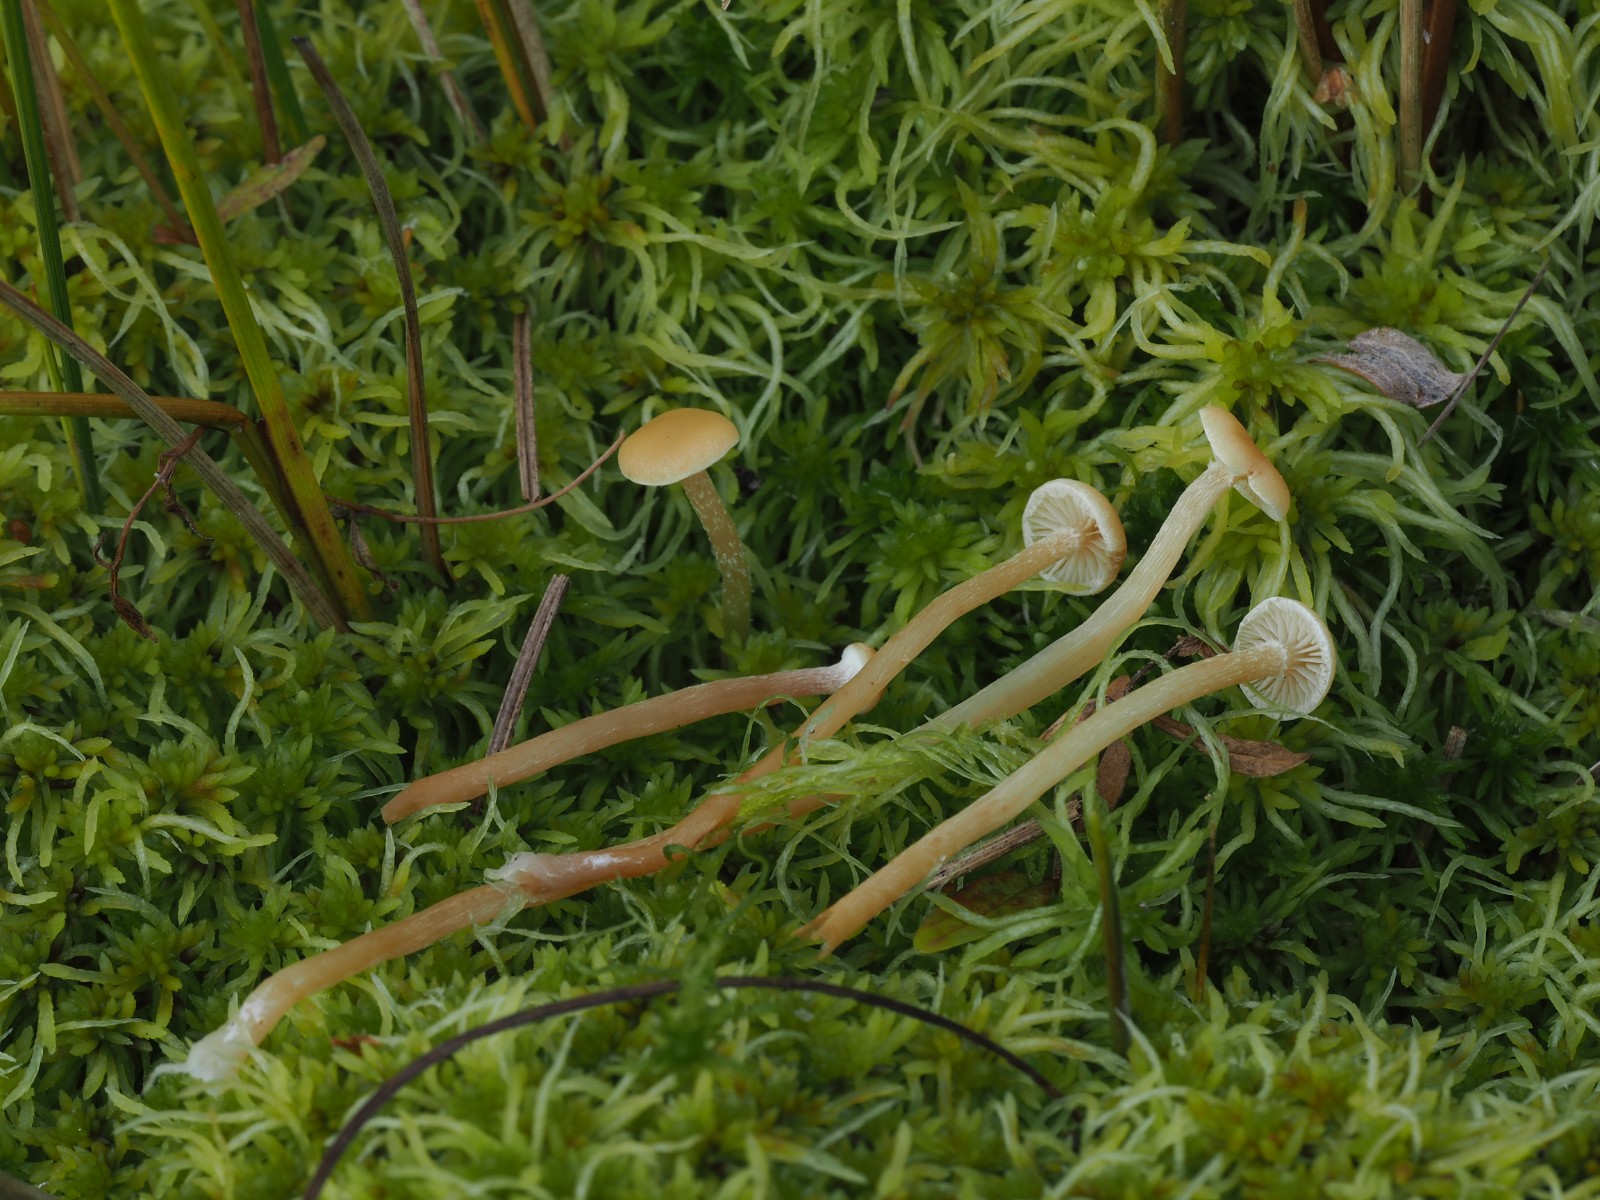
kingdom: Fungi
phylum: Basidiomycota
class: Agaricomycetes
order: Agaricales
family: Strophariaceae
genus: Hypholoma
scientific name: Hypholoma elongatum
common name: slank svovlhat
